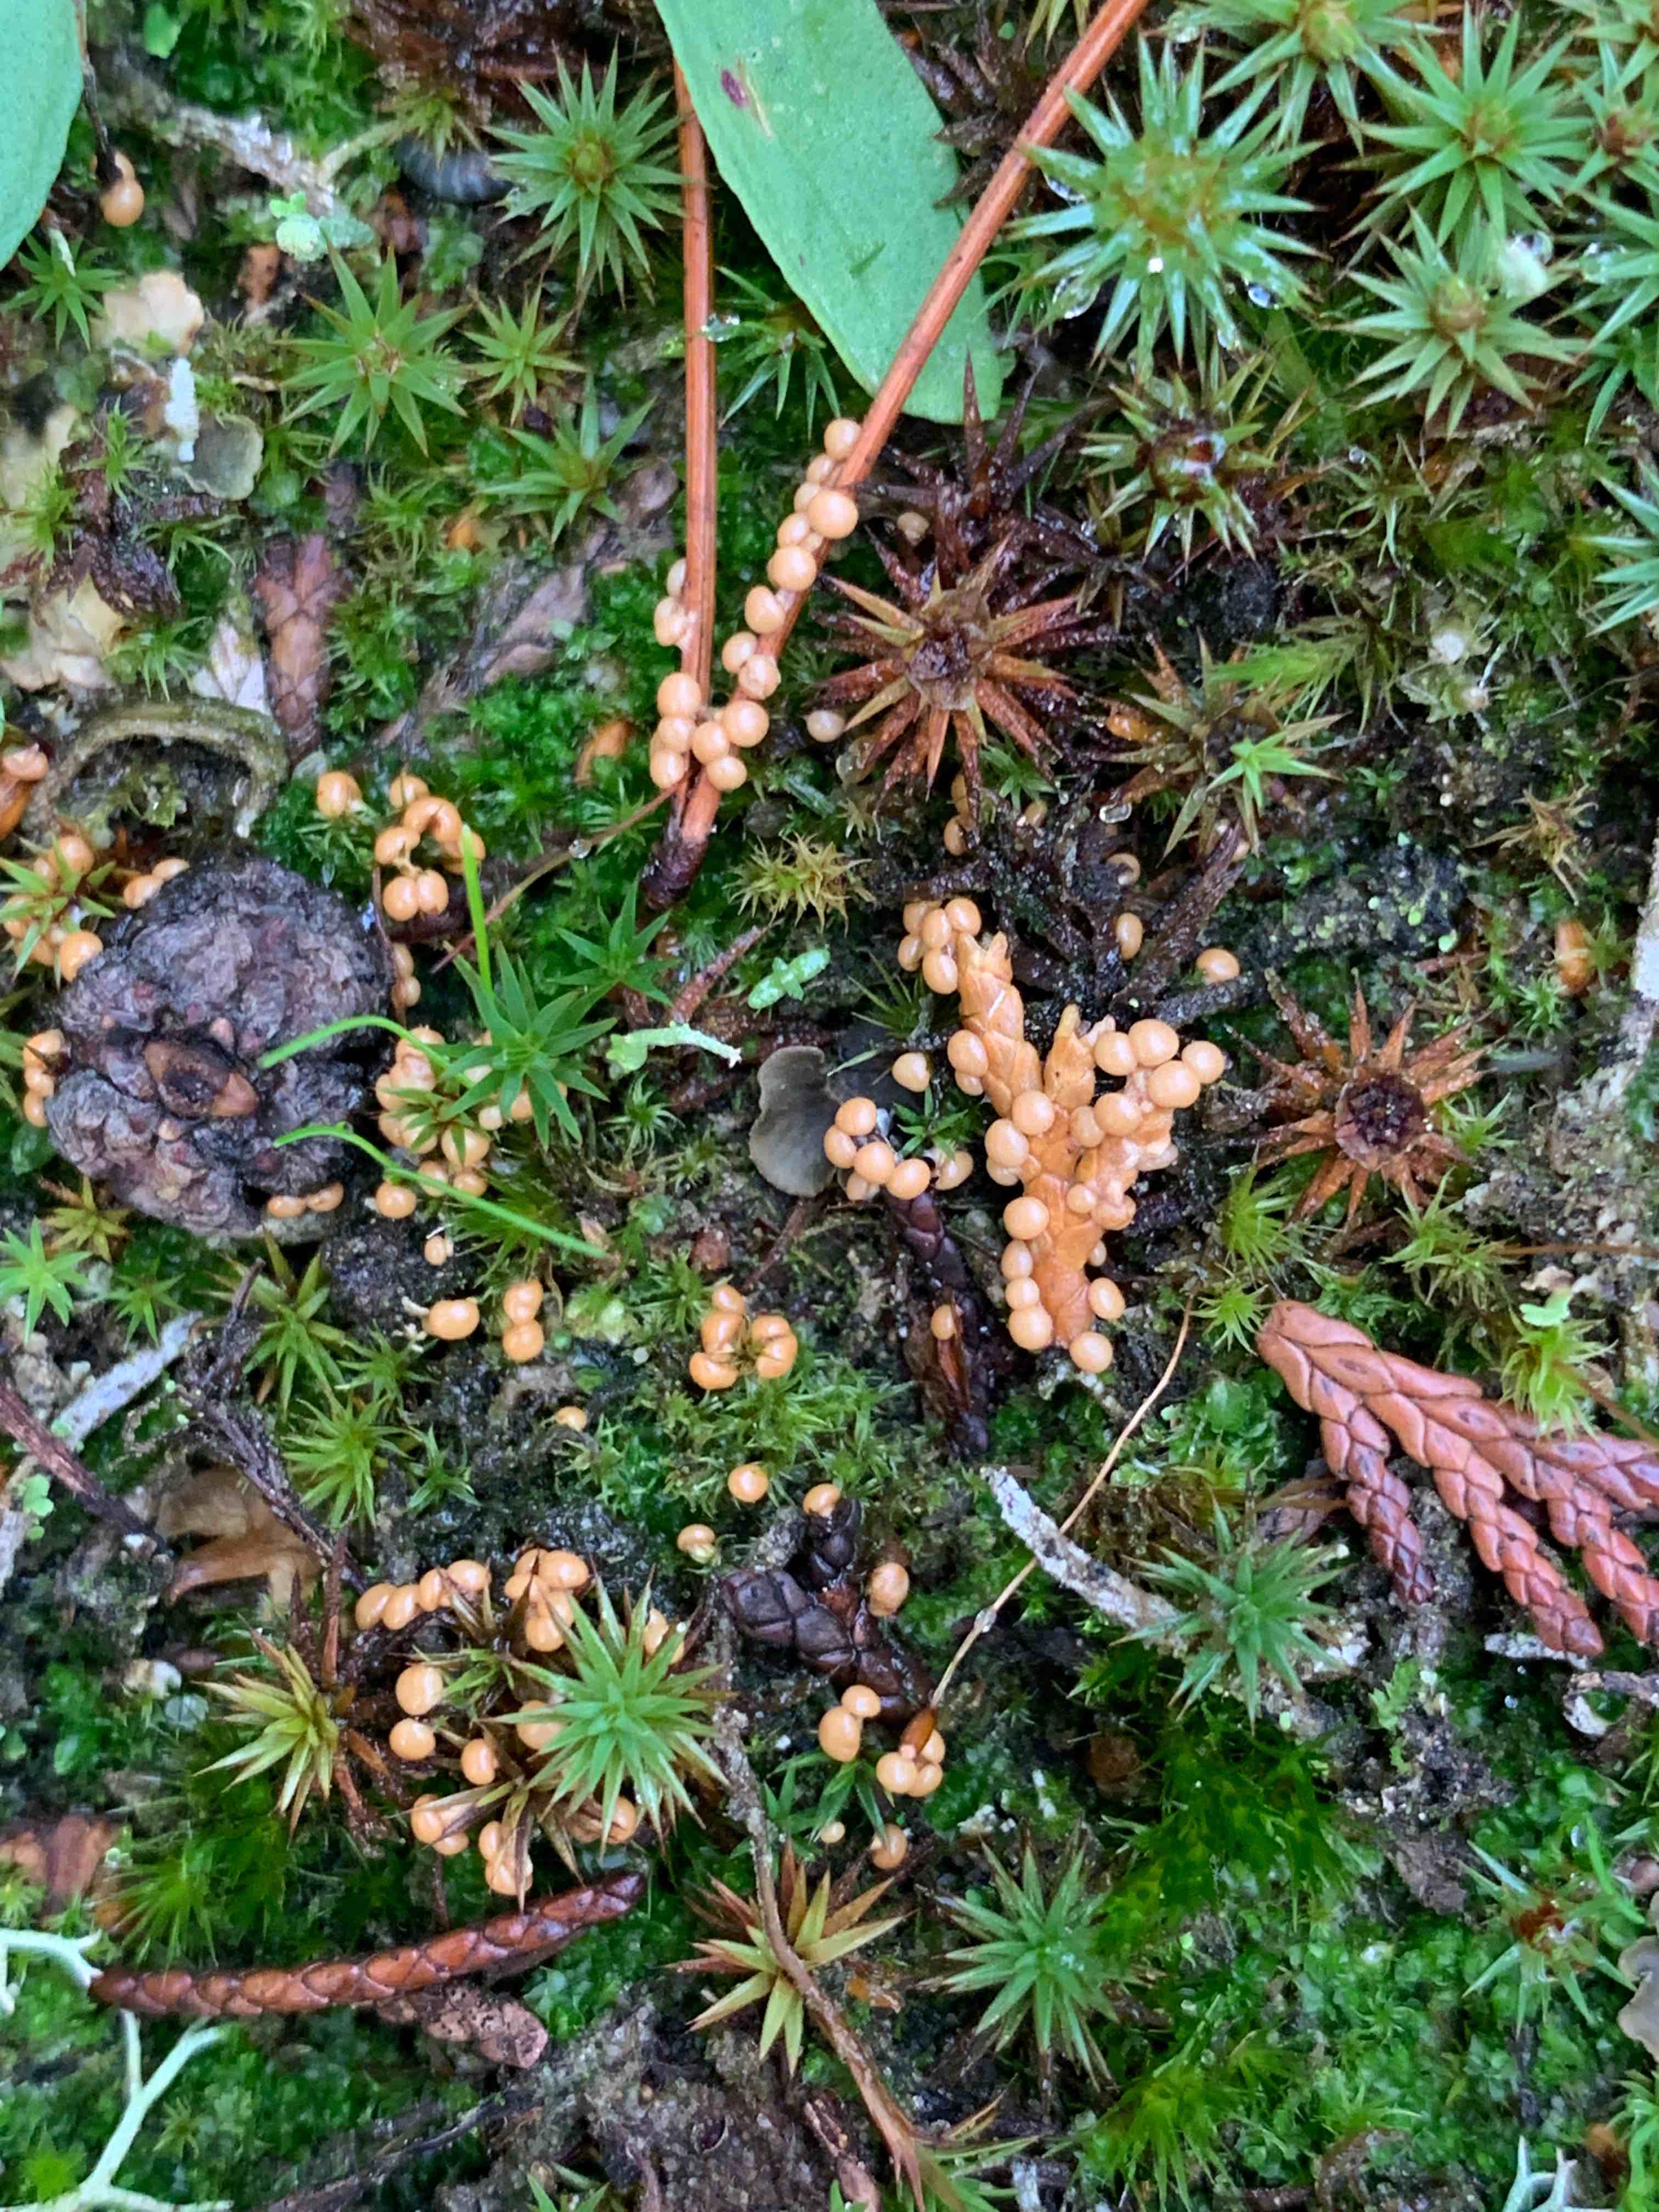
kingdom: Protozoa
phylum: Mycetozoa
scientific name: Mycetozoa
